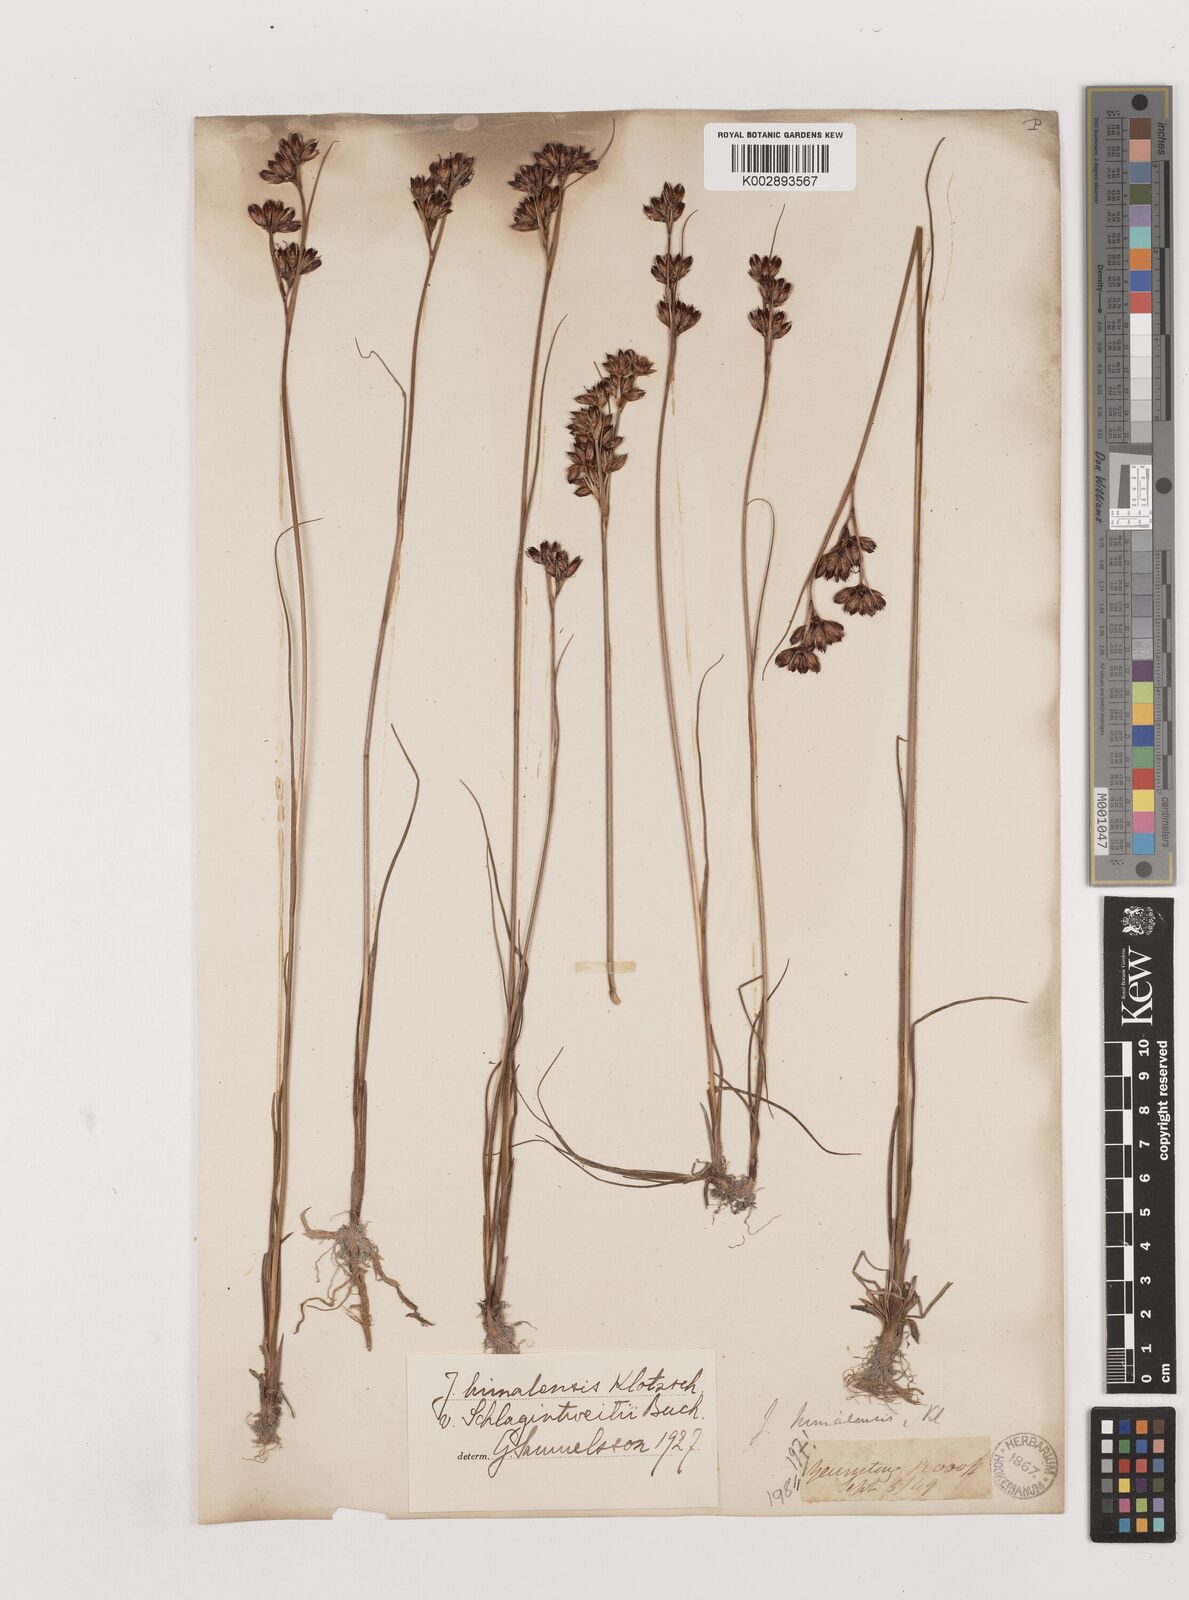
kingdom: Plantae
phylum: Tracheophyta
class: Liliopsida
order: Poales
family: Juncaceae
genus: Juncus
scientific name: Juncus himalensis
